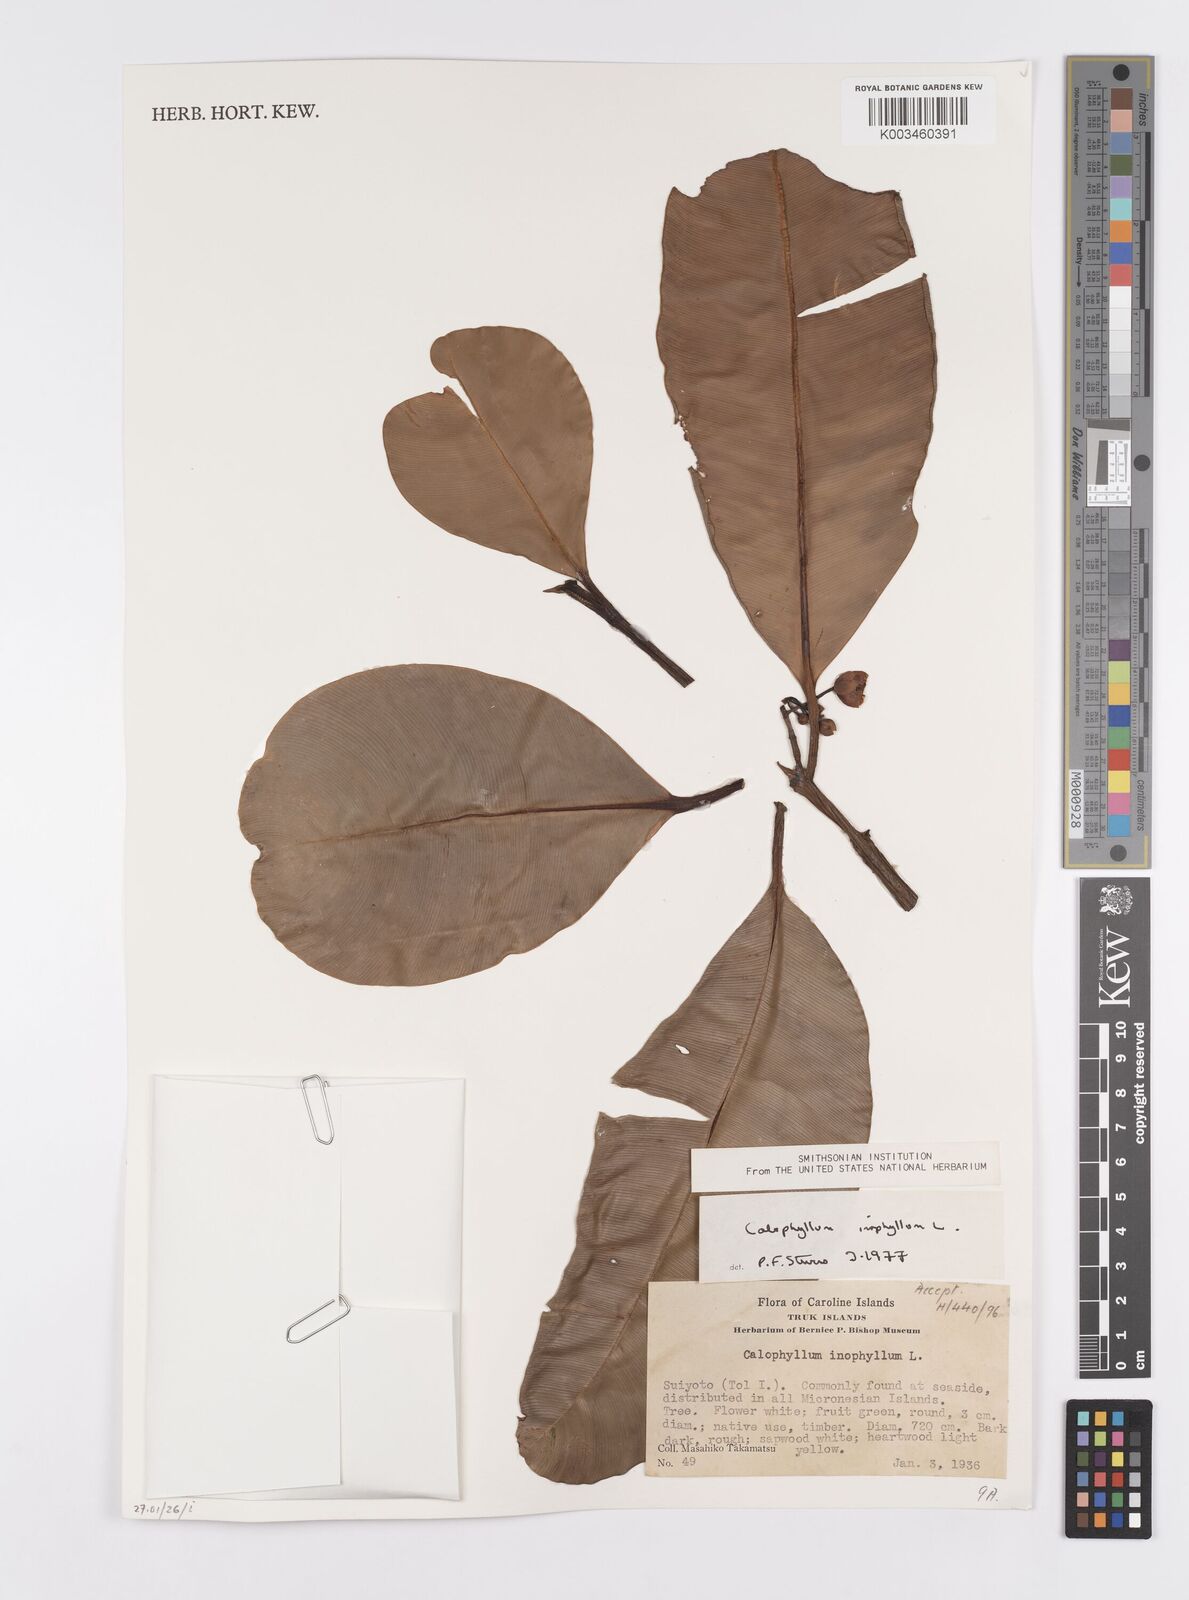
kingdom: Plantae
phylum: Tracheophyta
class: Magnoliopsida
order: Malpighiales
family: Calophyllaceae
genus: Calophyllum
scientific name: Calophyllum inophyllum
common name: Alexandrian laurel
